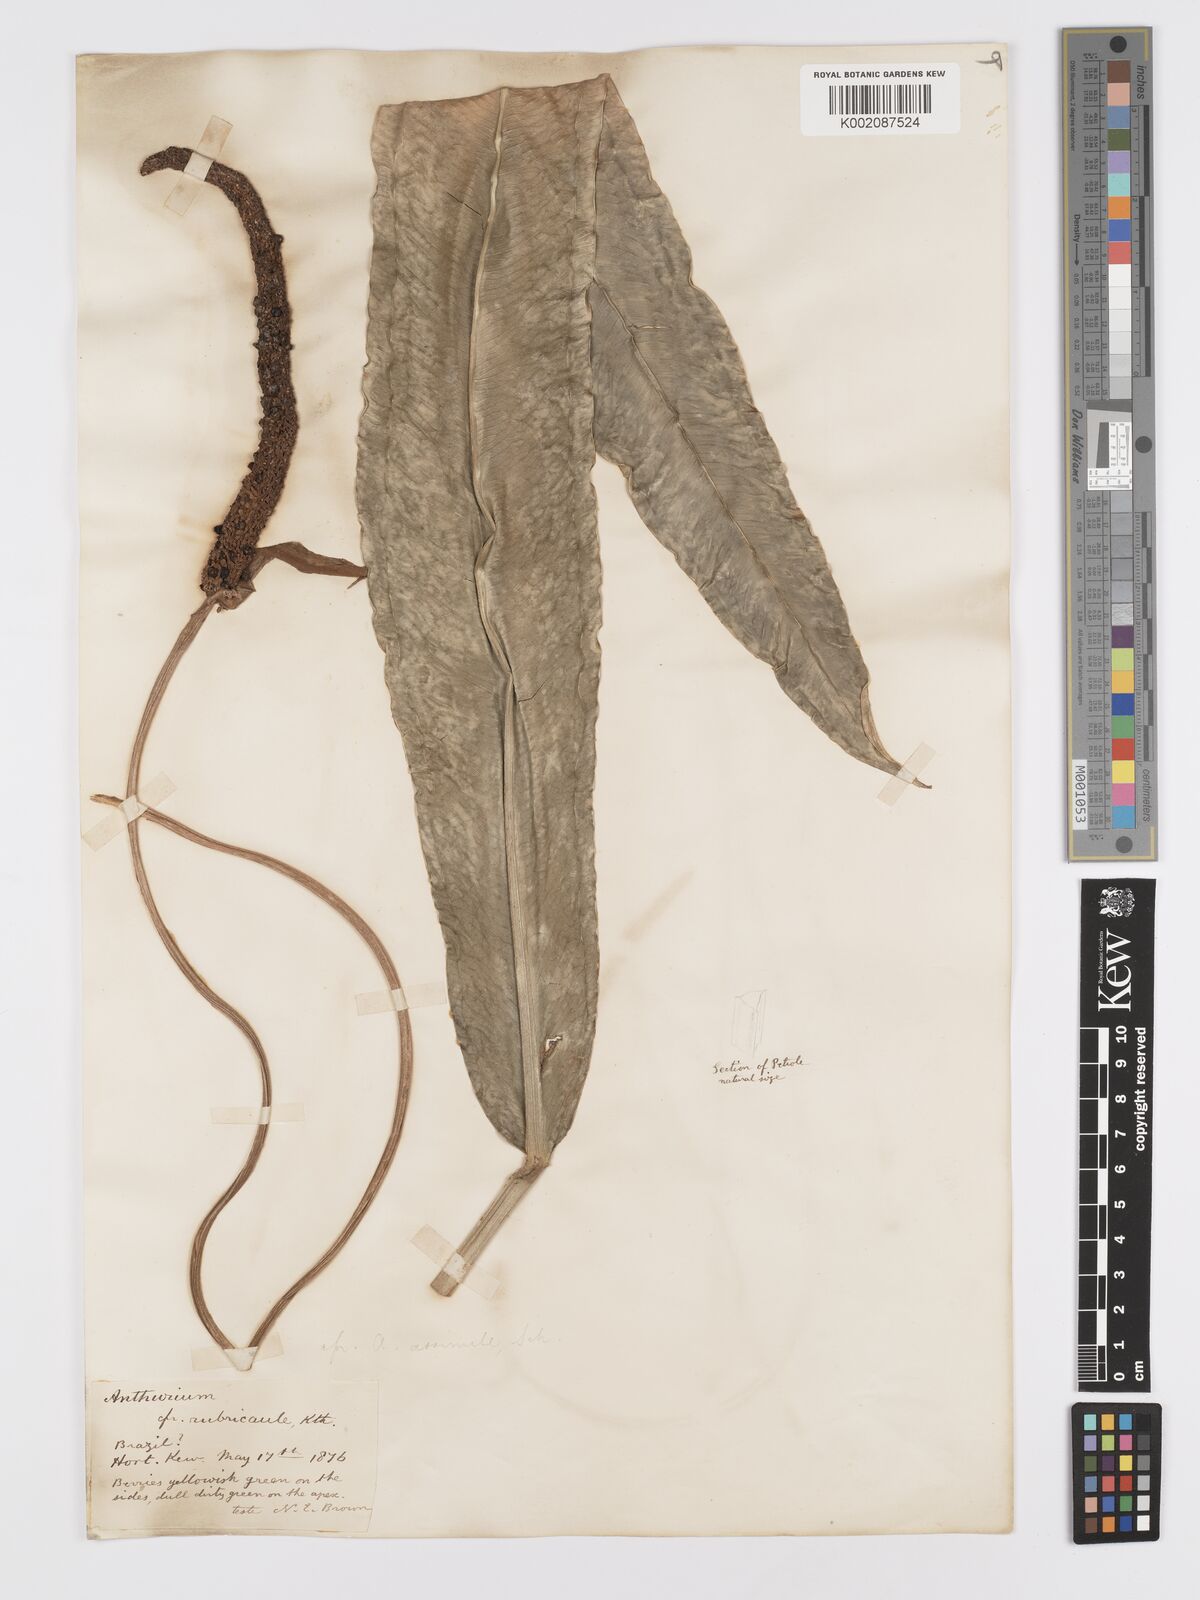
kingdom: Plantae
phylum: Tracheophyta
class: Liliopsida
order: Alismatales
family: Araceae
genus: Anthurium
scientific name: Anthurium intermedium
